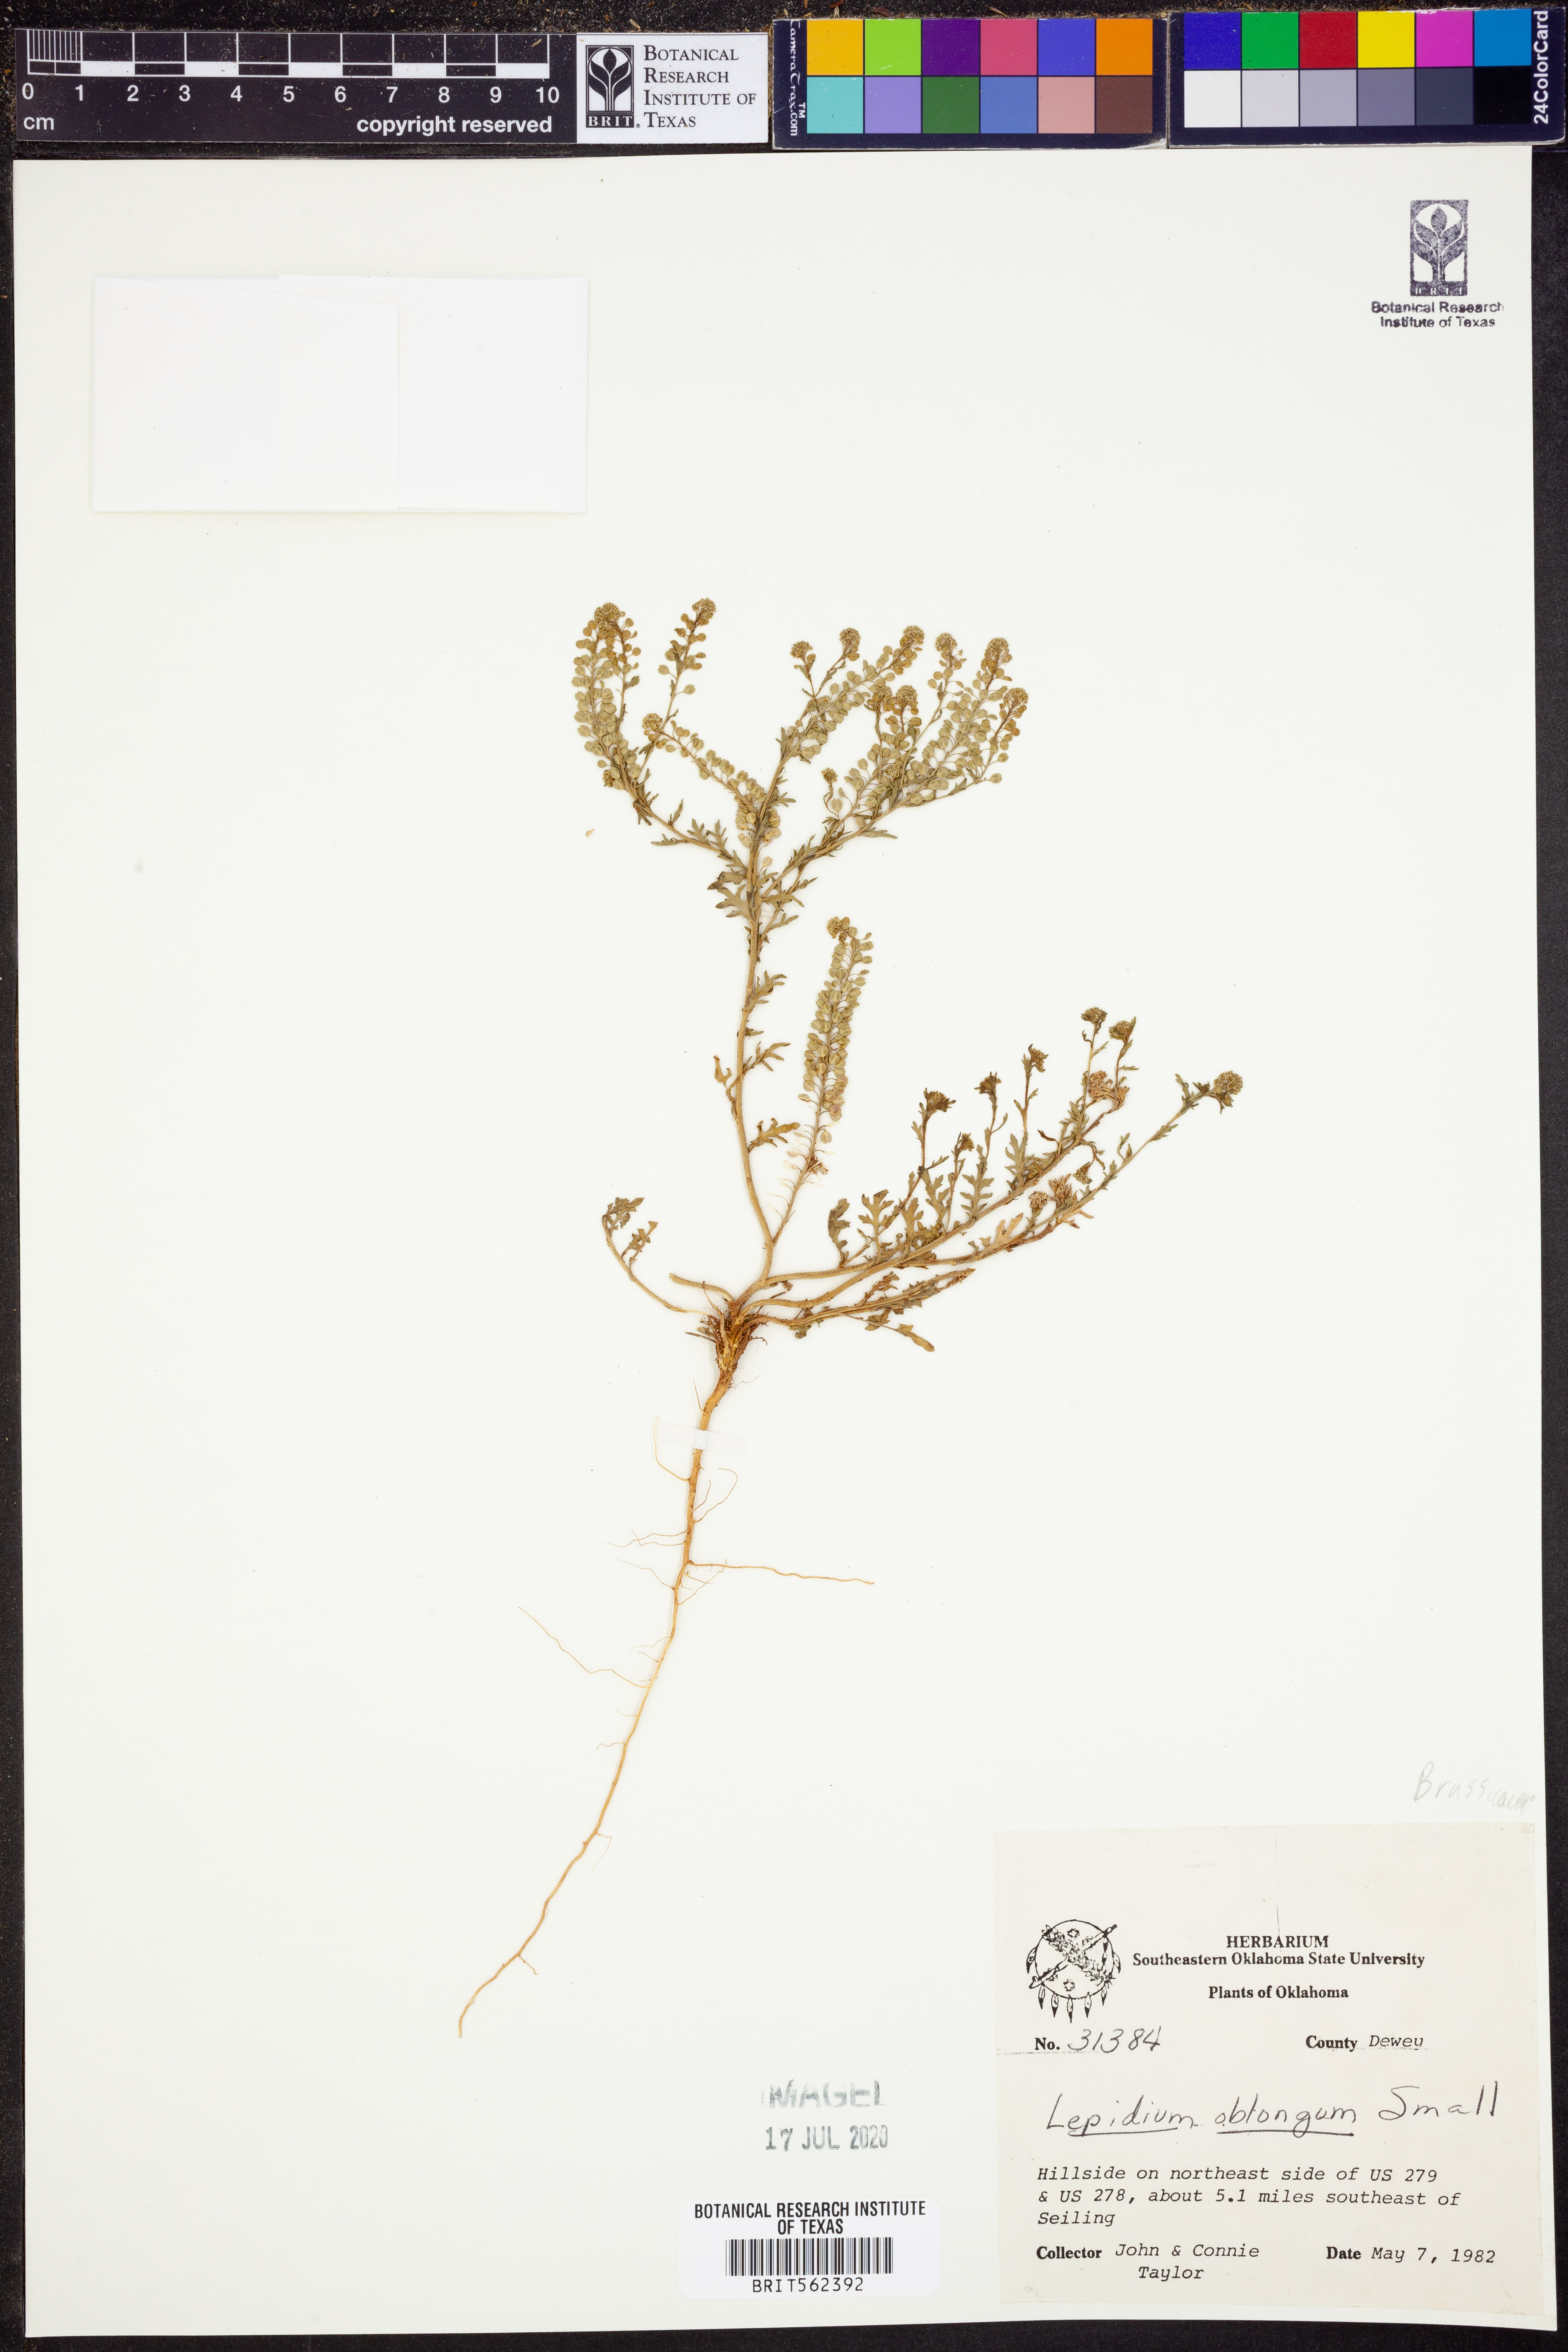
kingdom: Plantae
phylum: Tracheophyta
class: Magnoliopsida
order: Brassicales
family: Brassicaceae
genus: Lepidium
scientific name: Lepidium oblongum
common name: Veiny pepperweed
